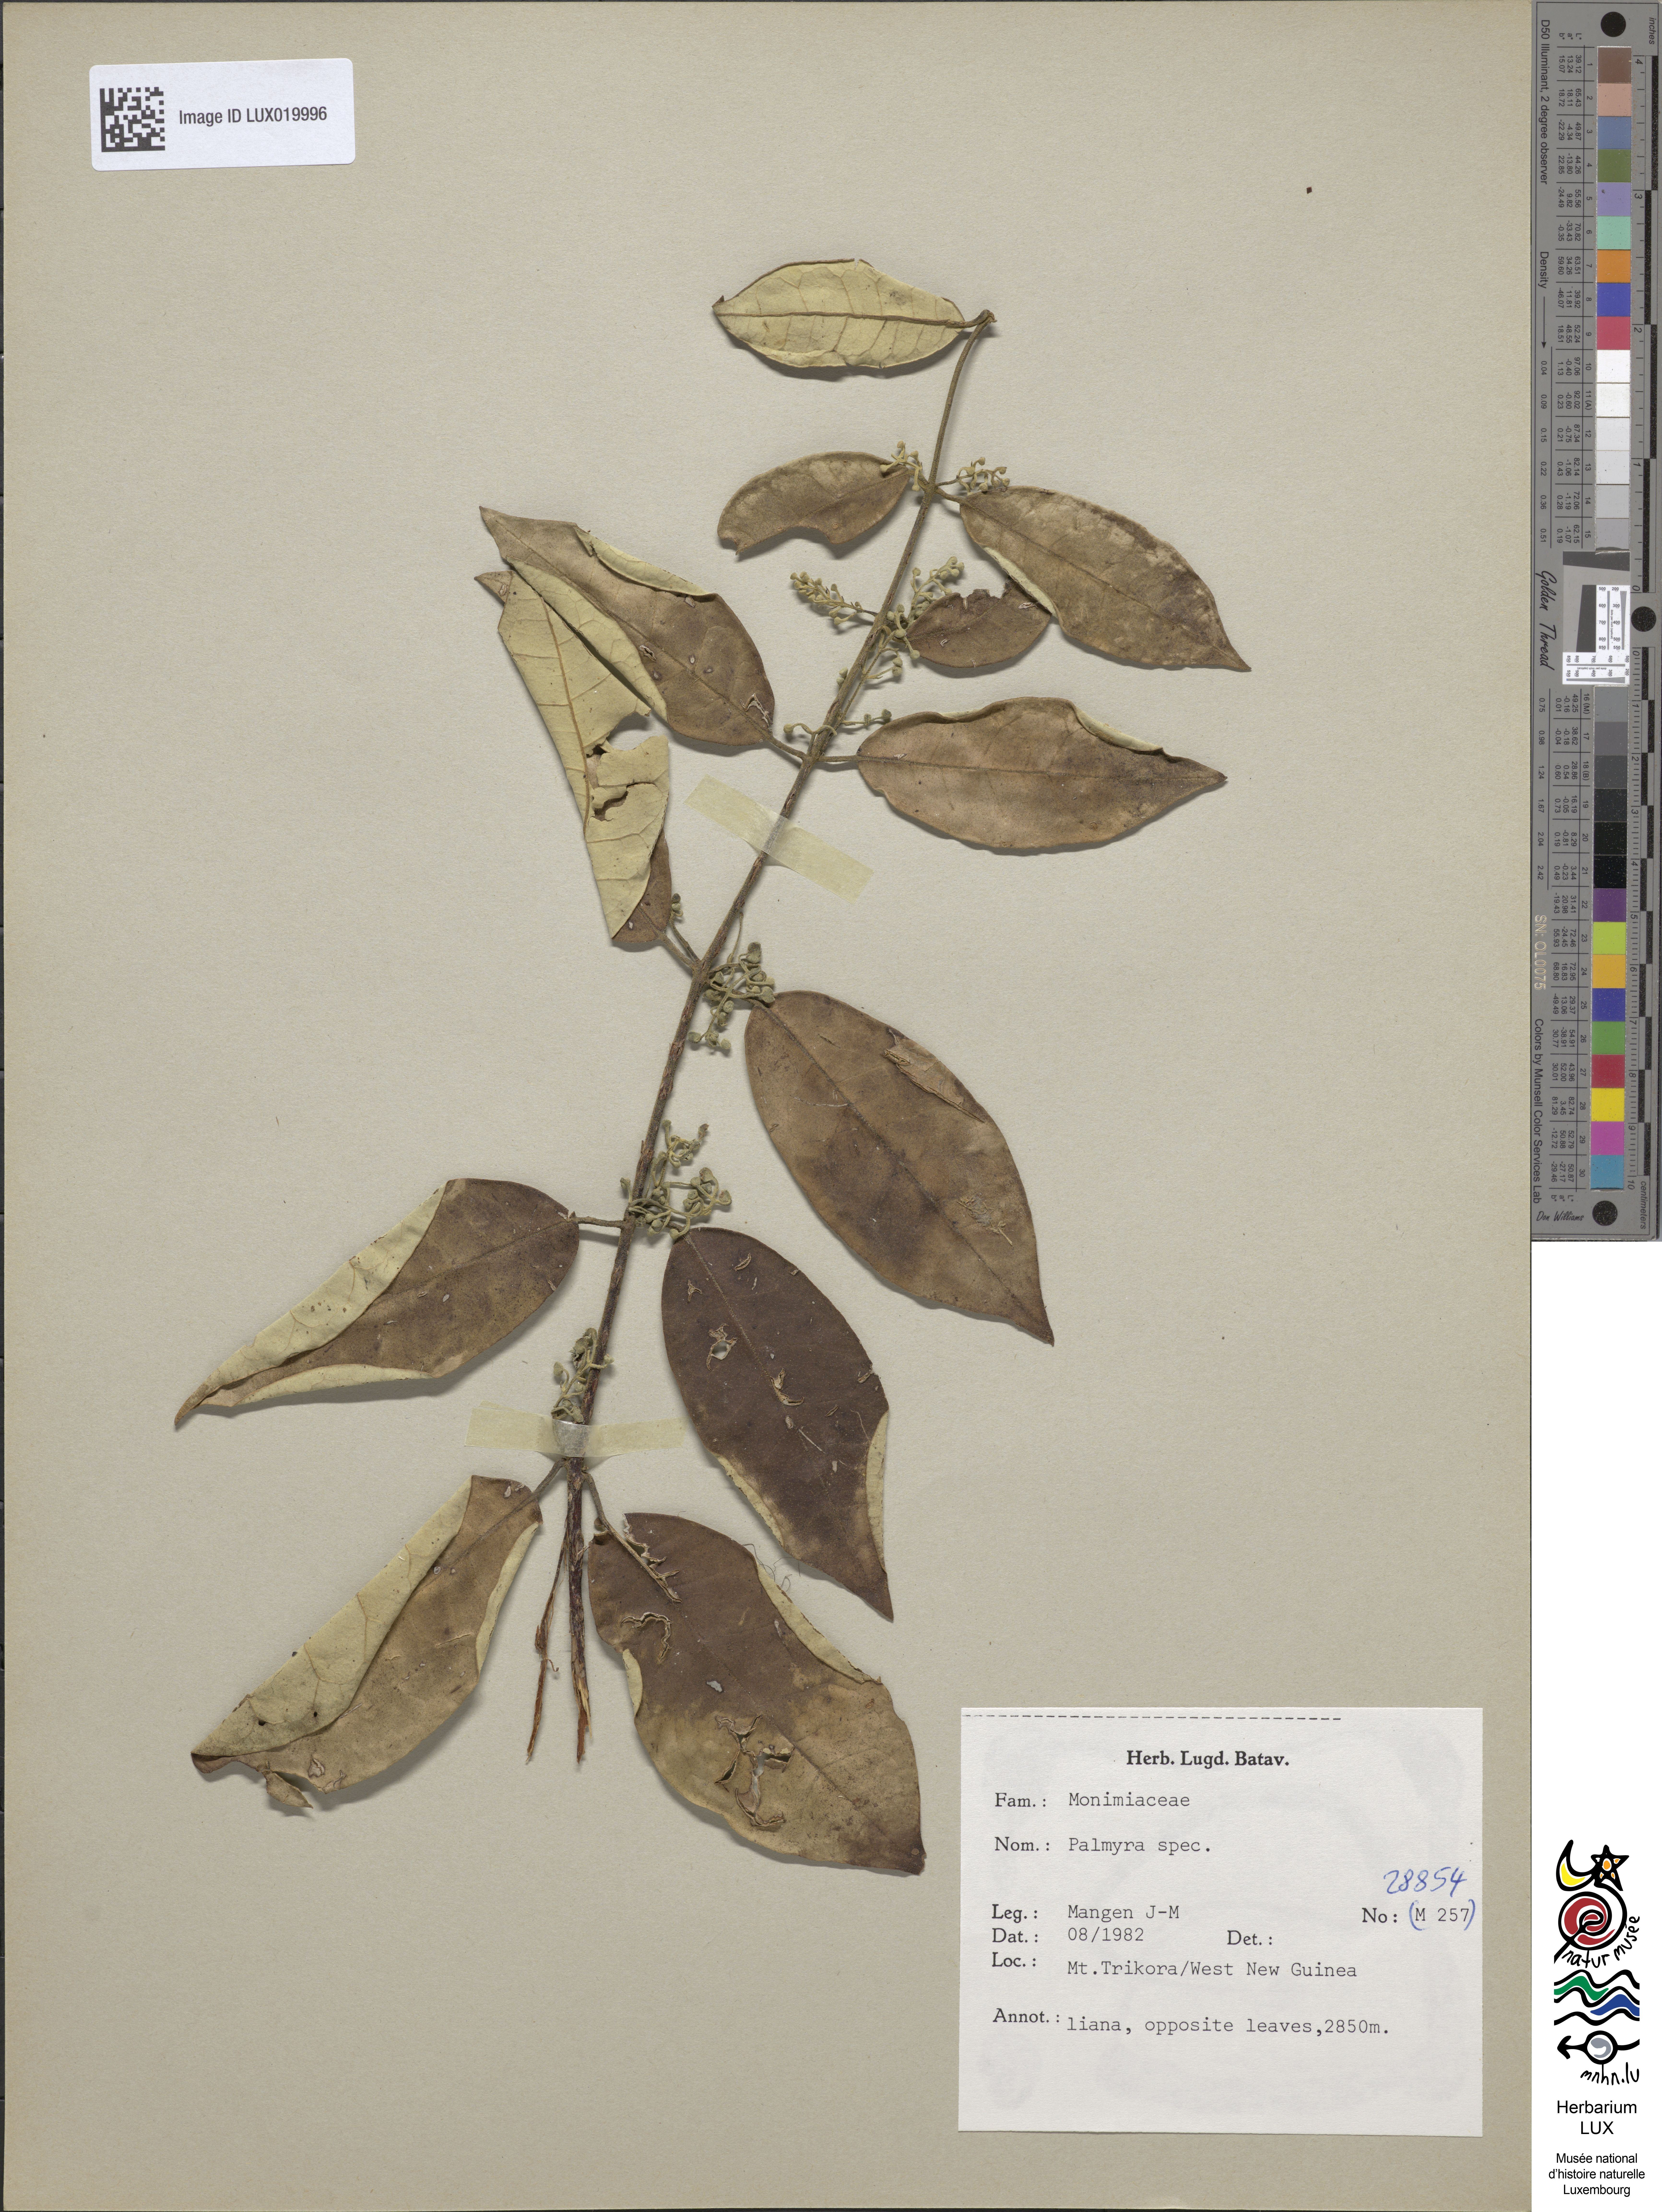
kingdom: Plantae
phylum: Tracheophyta
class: Magnoliopsida
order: Laurales
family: Monimiaceae
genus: Palmeria
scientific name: Palmeria hypargyrea
